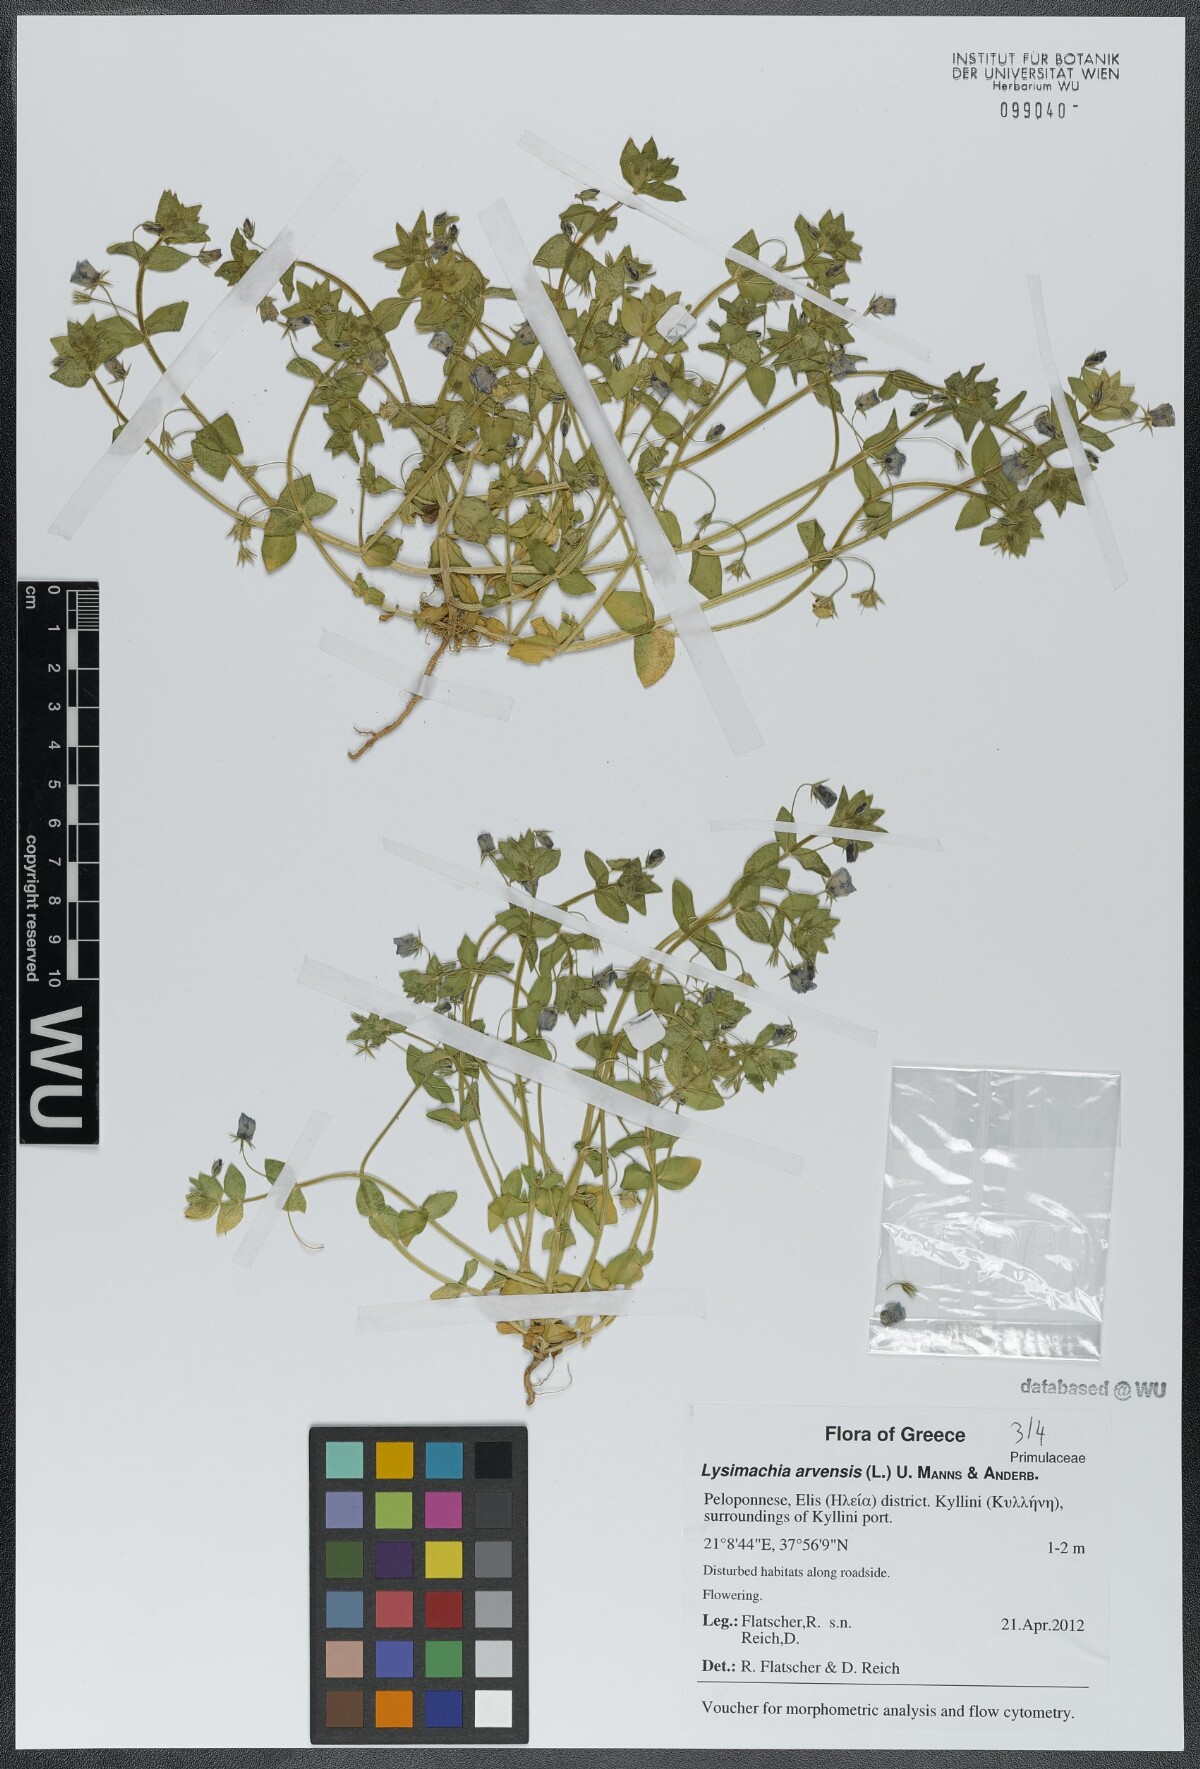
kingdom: Plantae
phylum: Tracheophyta
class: Magnoliopsida
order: Ericales
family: Primulaceae
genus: Lysimachia
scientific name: Lysimachia arvensis
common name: Scarlet pimpernel
